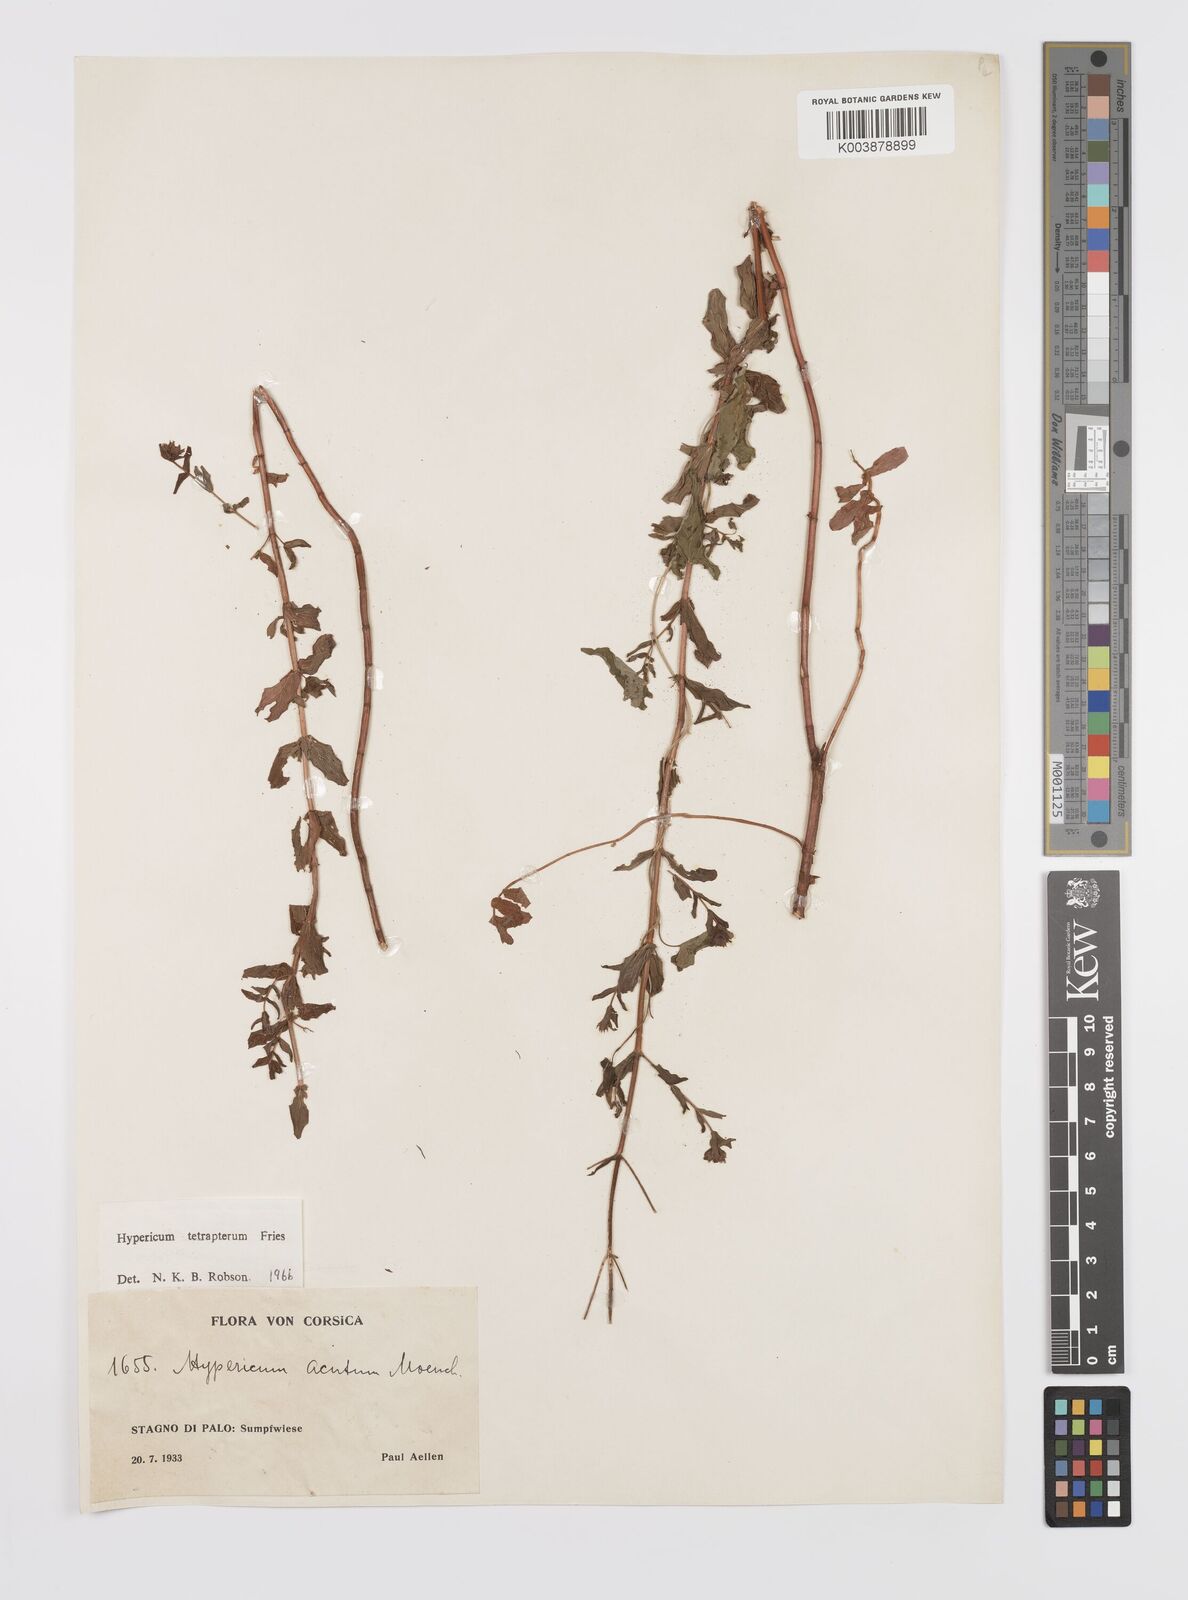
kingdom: Plantae
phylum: Tracheophyta
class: Magnoliopsida
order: Malpighiales
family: Hypericaceae
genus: Hypericum
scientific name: Hypericum tetrapterum
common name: Square-stalked st. john's-wort
